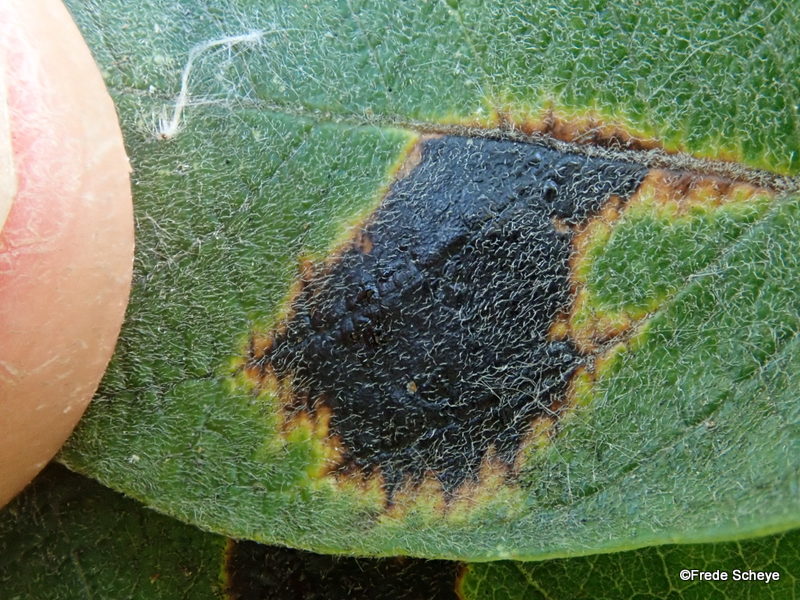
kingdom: Fungi
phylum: Ascomycota
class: Leotiomycetes
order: Rhytismatales
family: Rhytismataceae
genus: Rhytisma
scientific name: Rhytisma salicinum
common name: pile-rynkeplet
